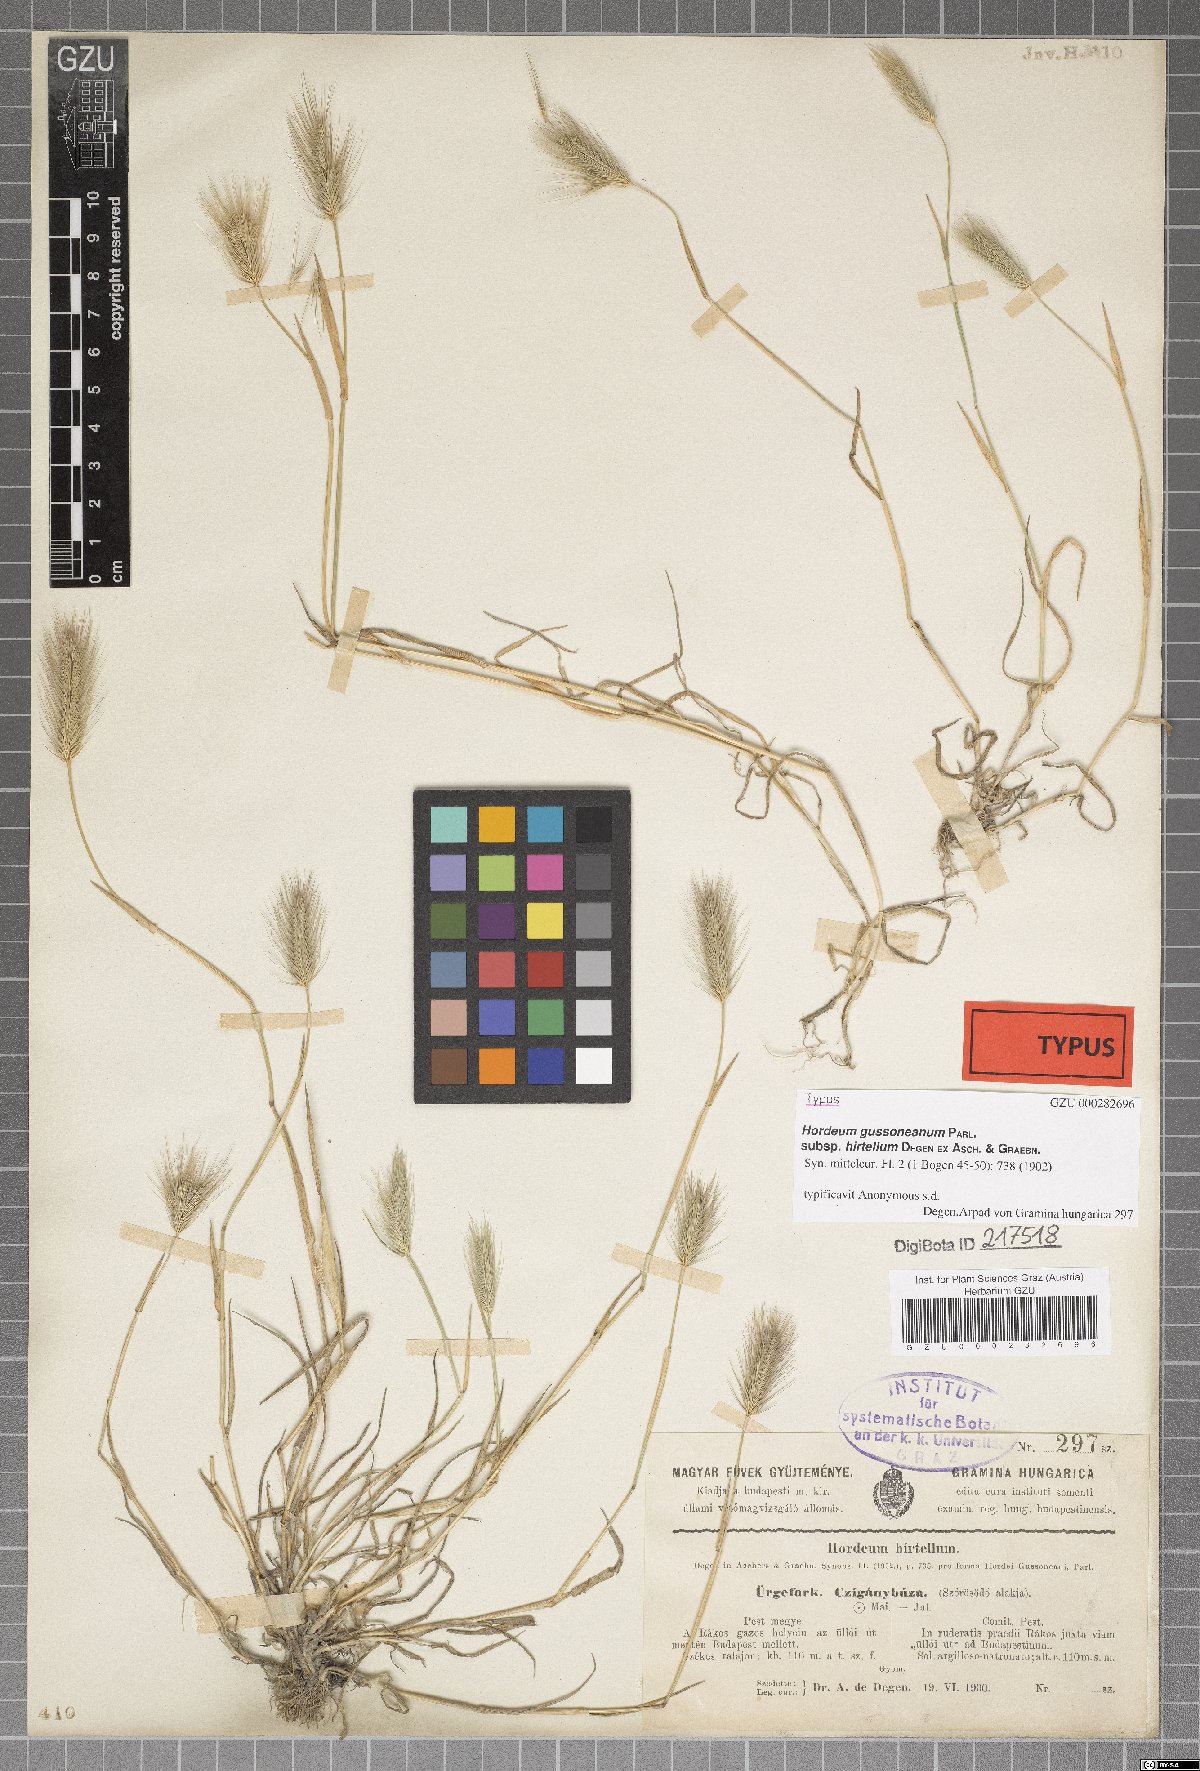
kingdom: Plantae
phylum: Tracheophyta
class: Liliopsida
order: Poales
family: Poaceae
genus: Hordeum
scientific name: Hordeum marinum
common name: Sea barley
